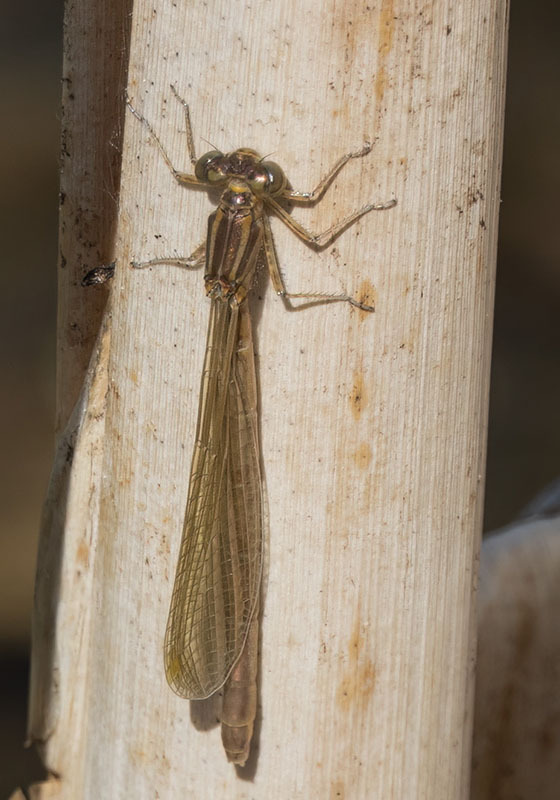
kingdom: Animalia
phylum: Arthropoda
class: Insecta
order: Odonata
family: Coenagrionidae
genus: Coenagrion
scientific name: Coenagrion hastulatum
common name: Spearhead bluet
